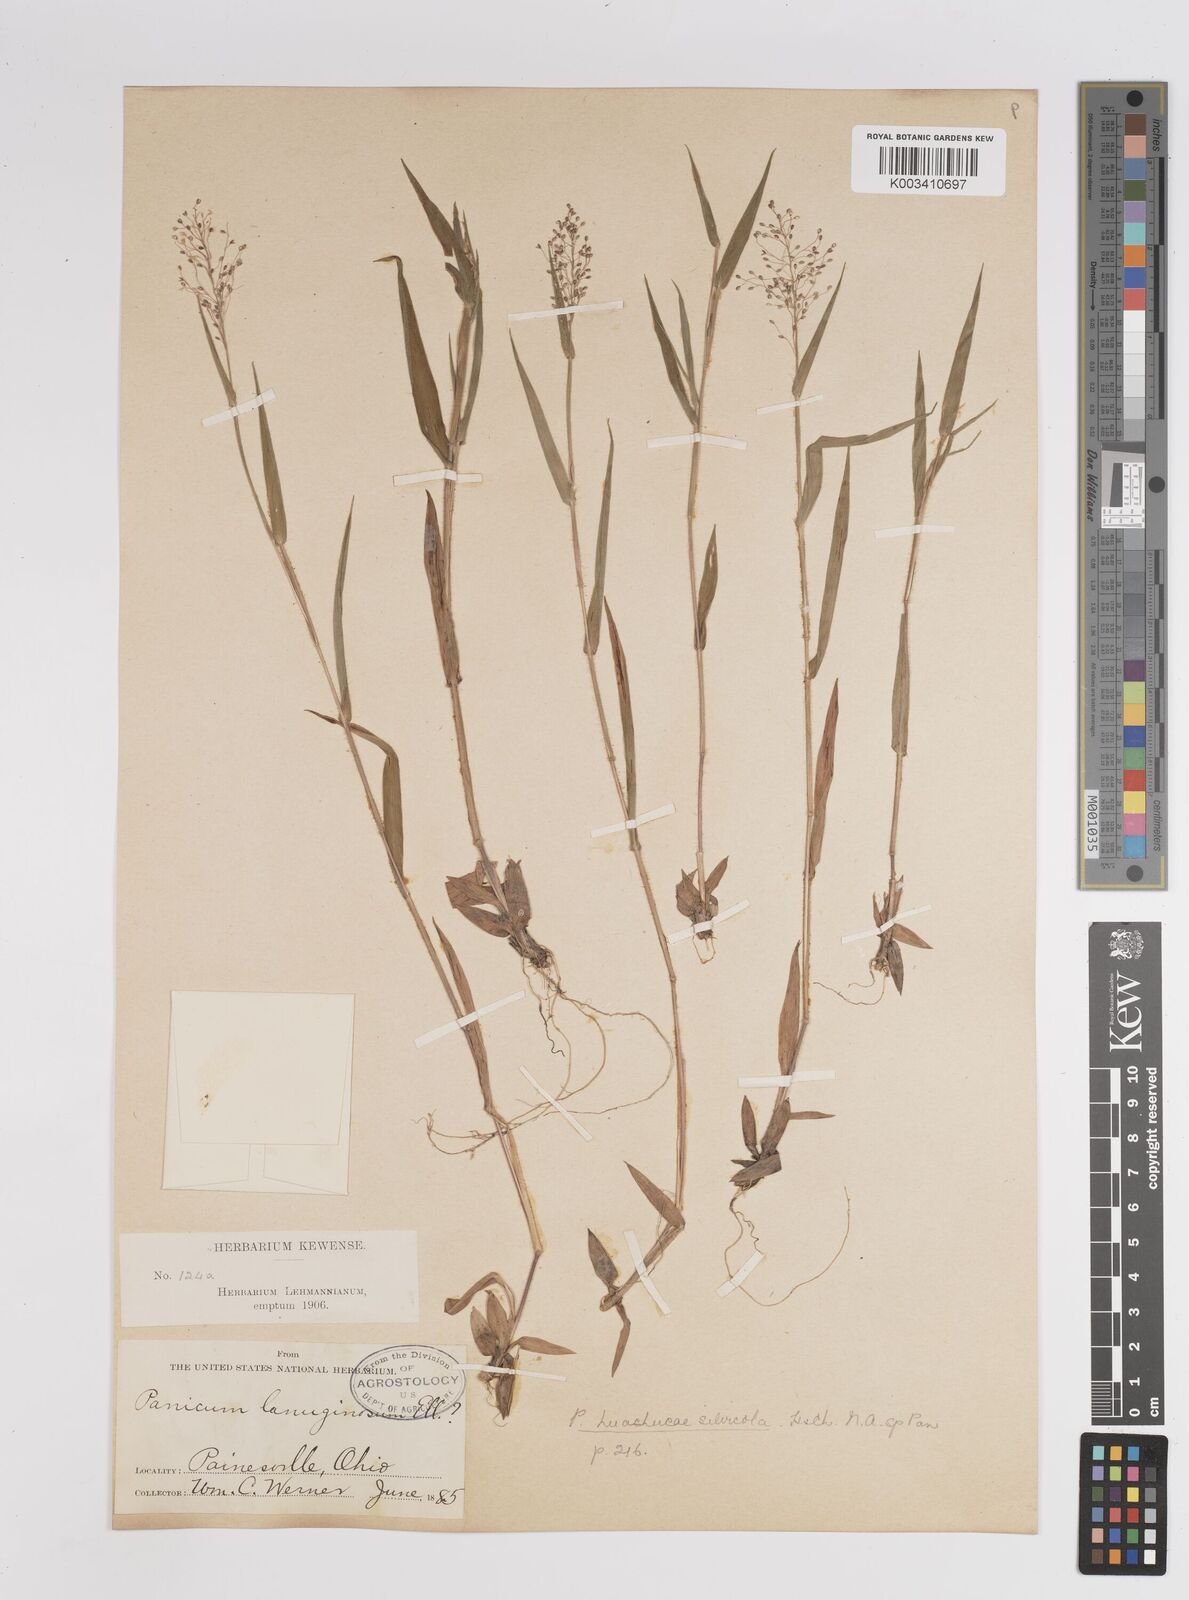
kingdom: Plantae
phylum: Tracheophyta
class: Liliopsida
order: Poales
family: Poaceae
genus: Dichanthelium
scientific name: Dichanthelium lanuginosum
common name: Woolly panicgrass
